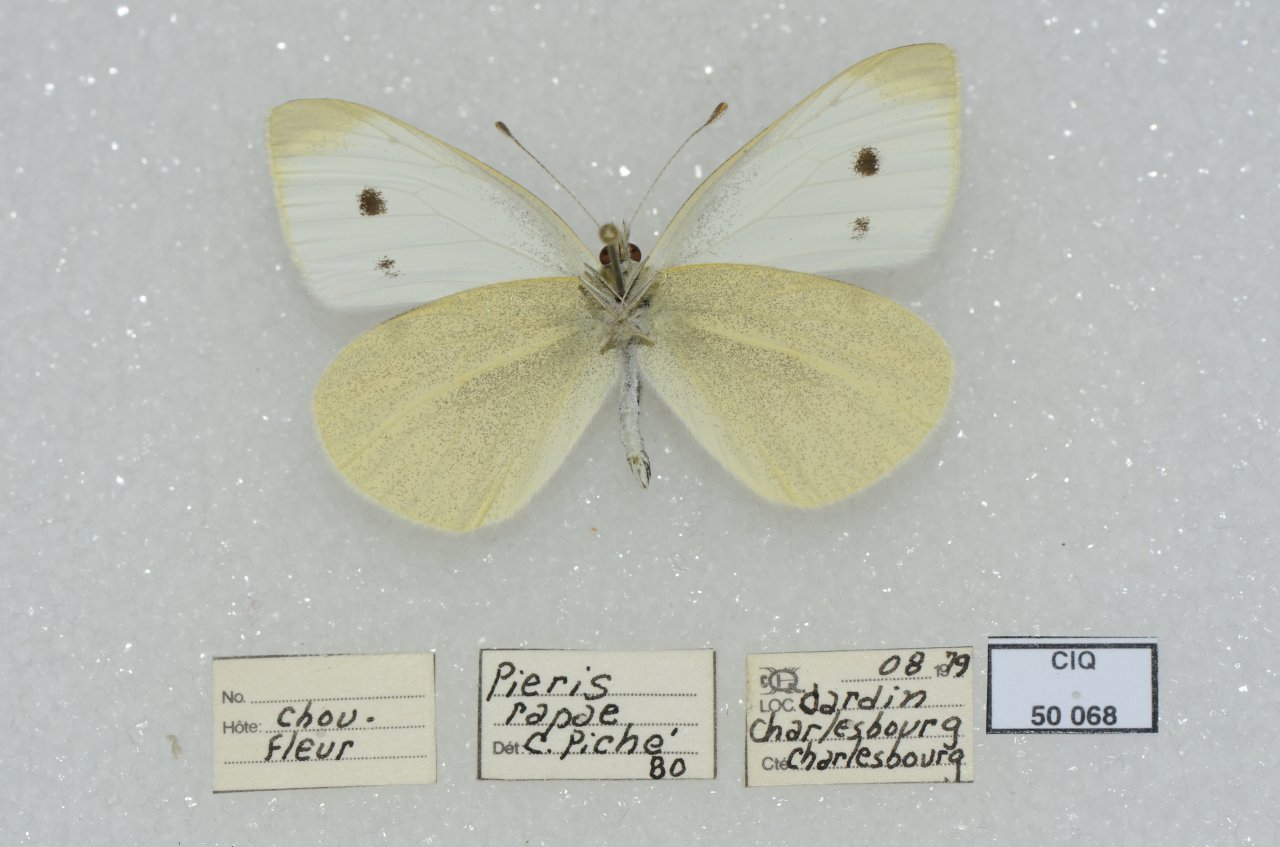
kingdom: Animalia
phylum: Arthropoda
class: Insecta
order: Lepidoptera
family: Pieridae
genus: Pieris
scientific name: Pieris rapae
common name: Cabbage White
